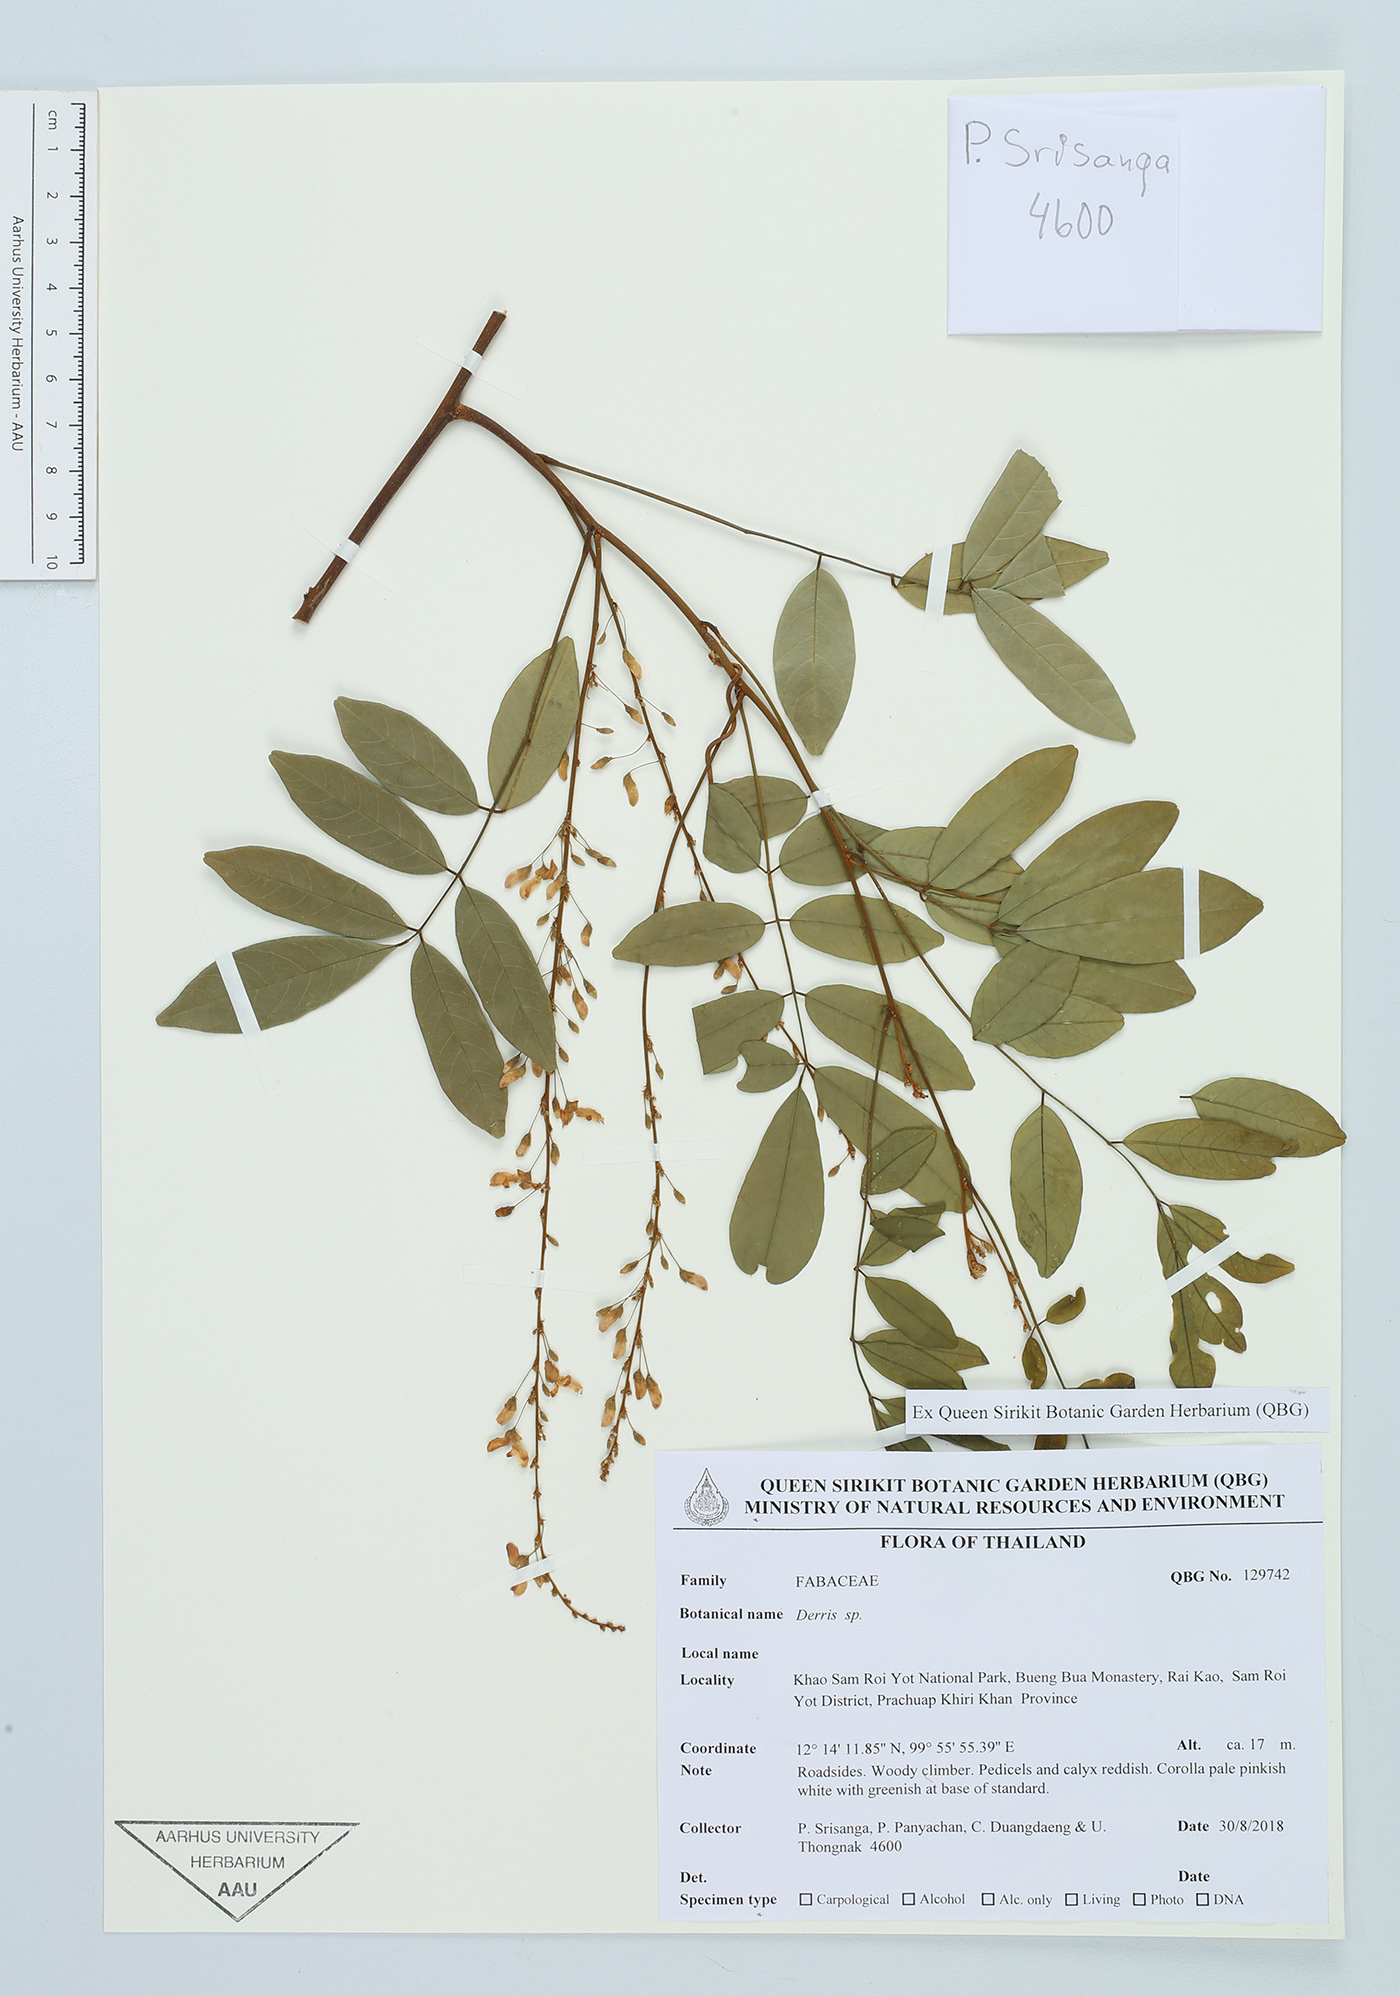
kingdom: Plantae
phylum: Tracheophyta
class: Magnoliopsida
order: Fabales
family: Fabaceae
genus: Derris
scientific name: Derris
